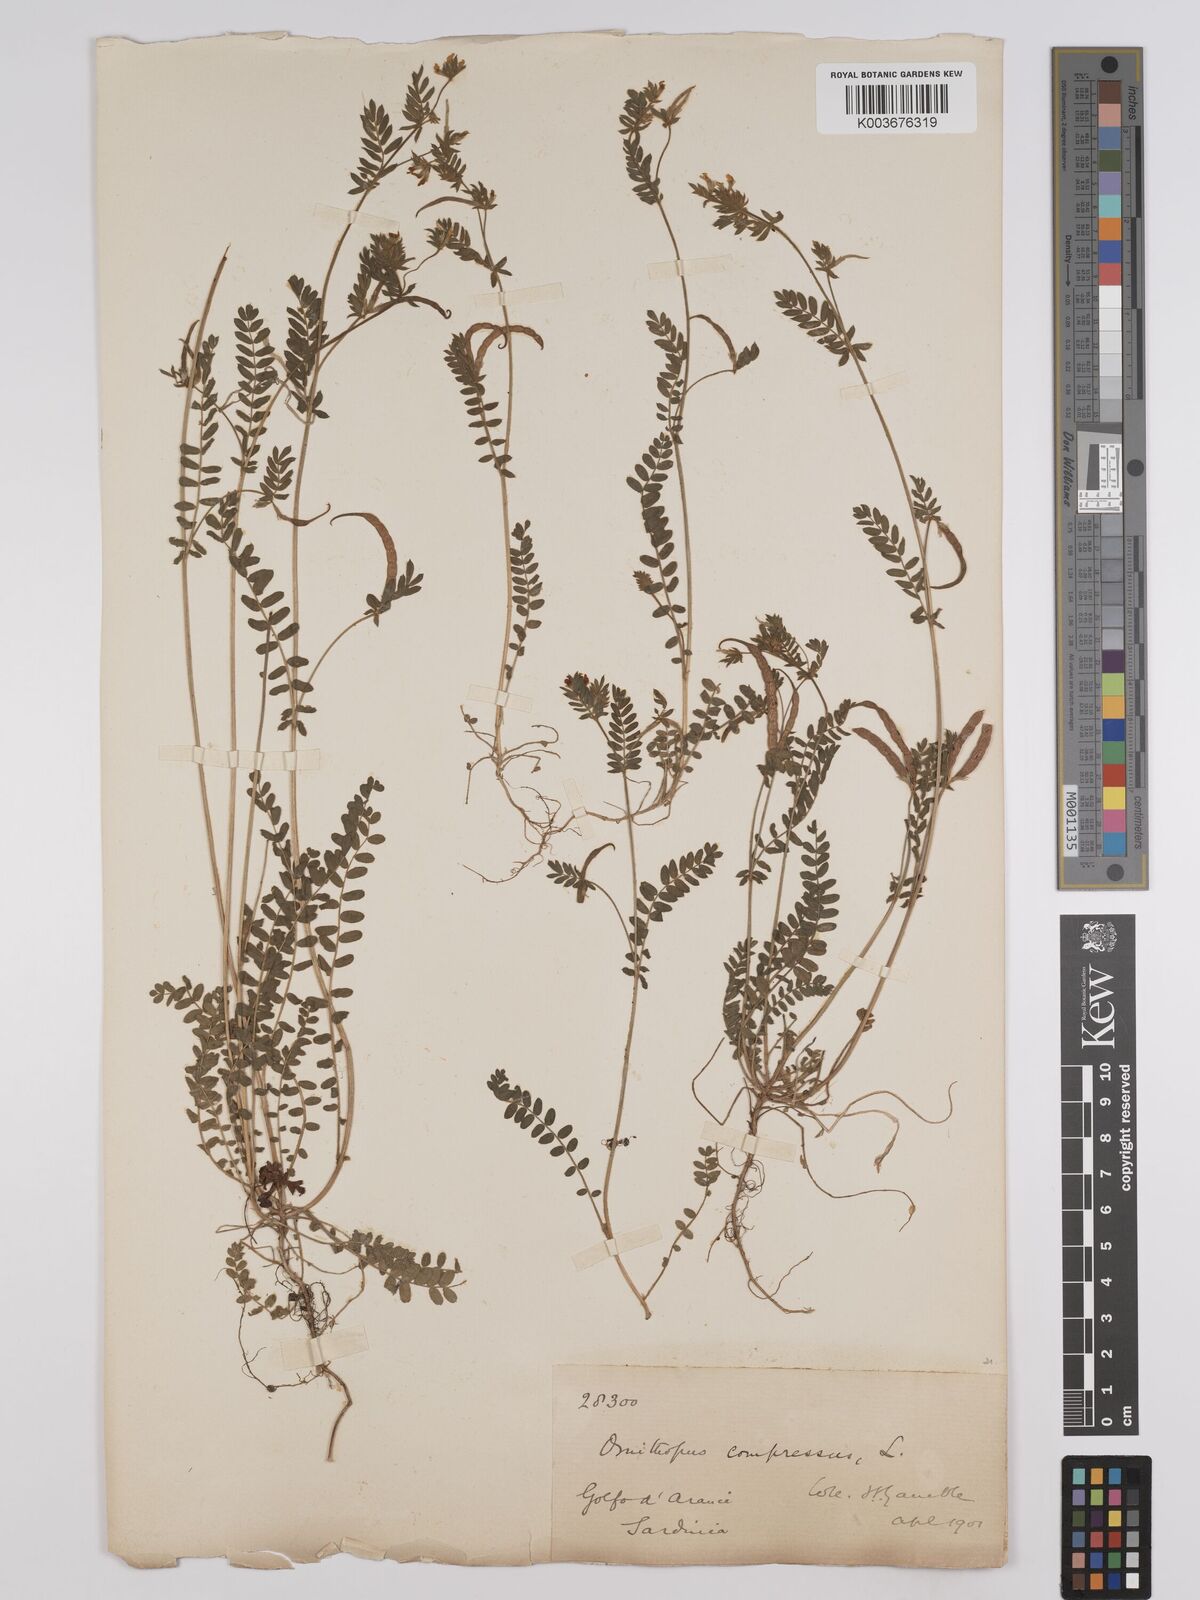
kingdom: Plantae
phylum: Tracheophyta
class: Magnoliopsida
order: Fabales
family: Fabaceae
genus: Ornithopus
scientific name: Ornithopus compressus
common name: Yellow serradella
